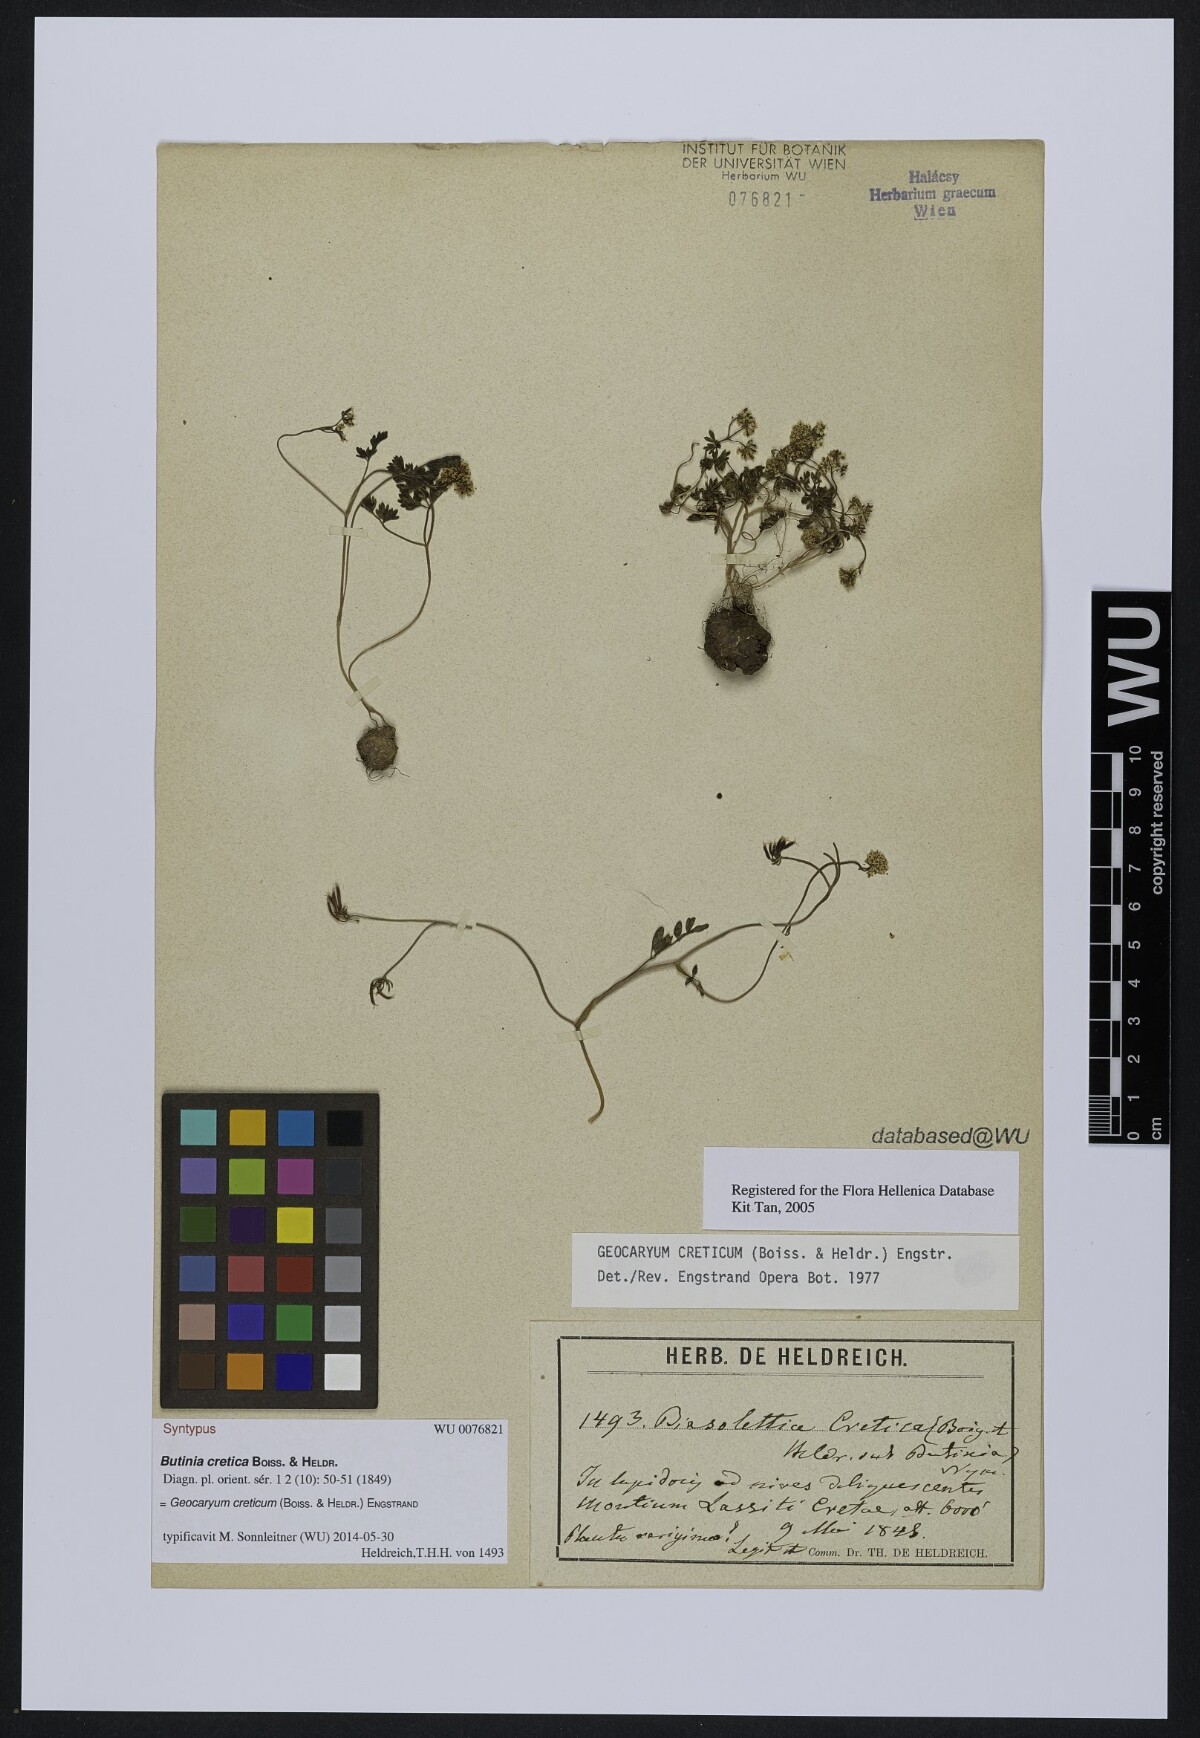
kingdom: Plantae
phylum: Tracheophyta
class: Magnoliopsida
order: Apiales
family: Apiaceae
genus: Geocaryum
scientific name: Geocaryum creticum
